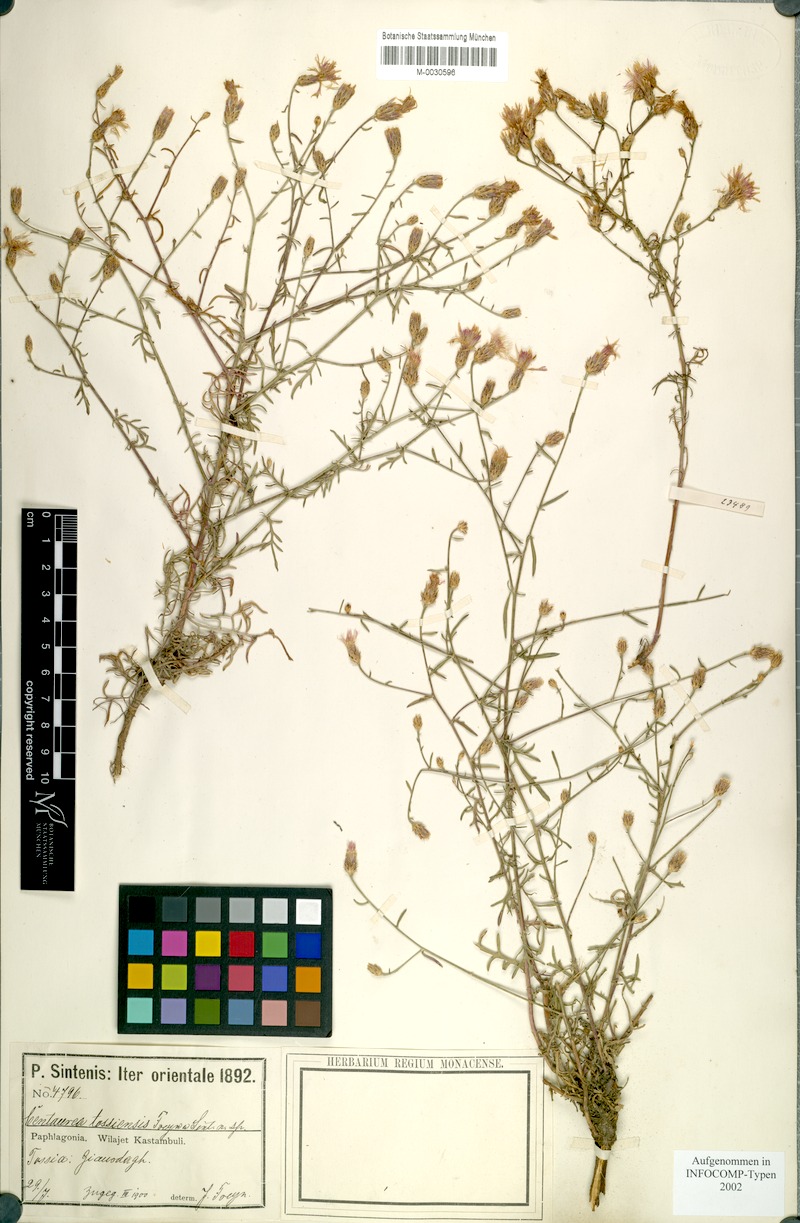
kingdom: Plantae
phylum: Tracheophyta
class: Magnoliopsida
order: Asterales
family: Asteraceae
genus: Centaurea
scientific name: Centaurea tossiensis
